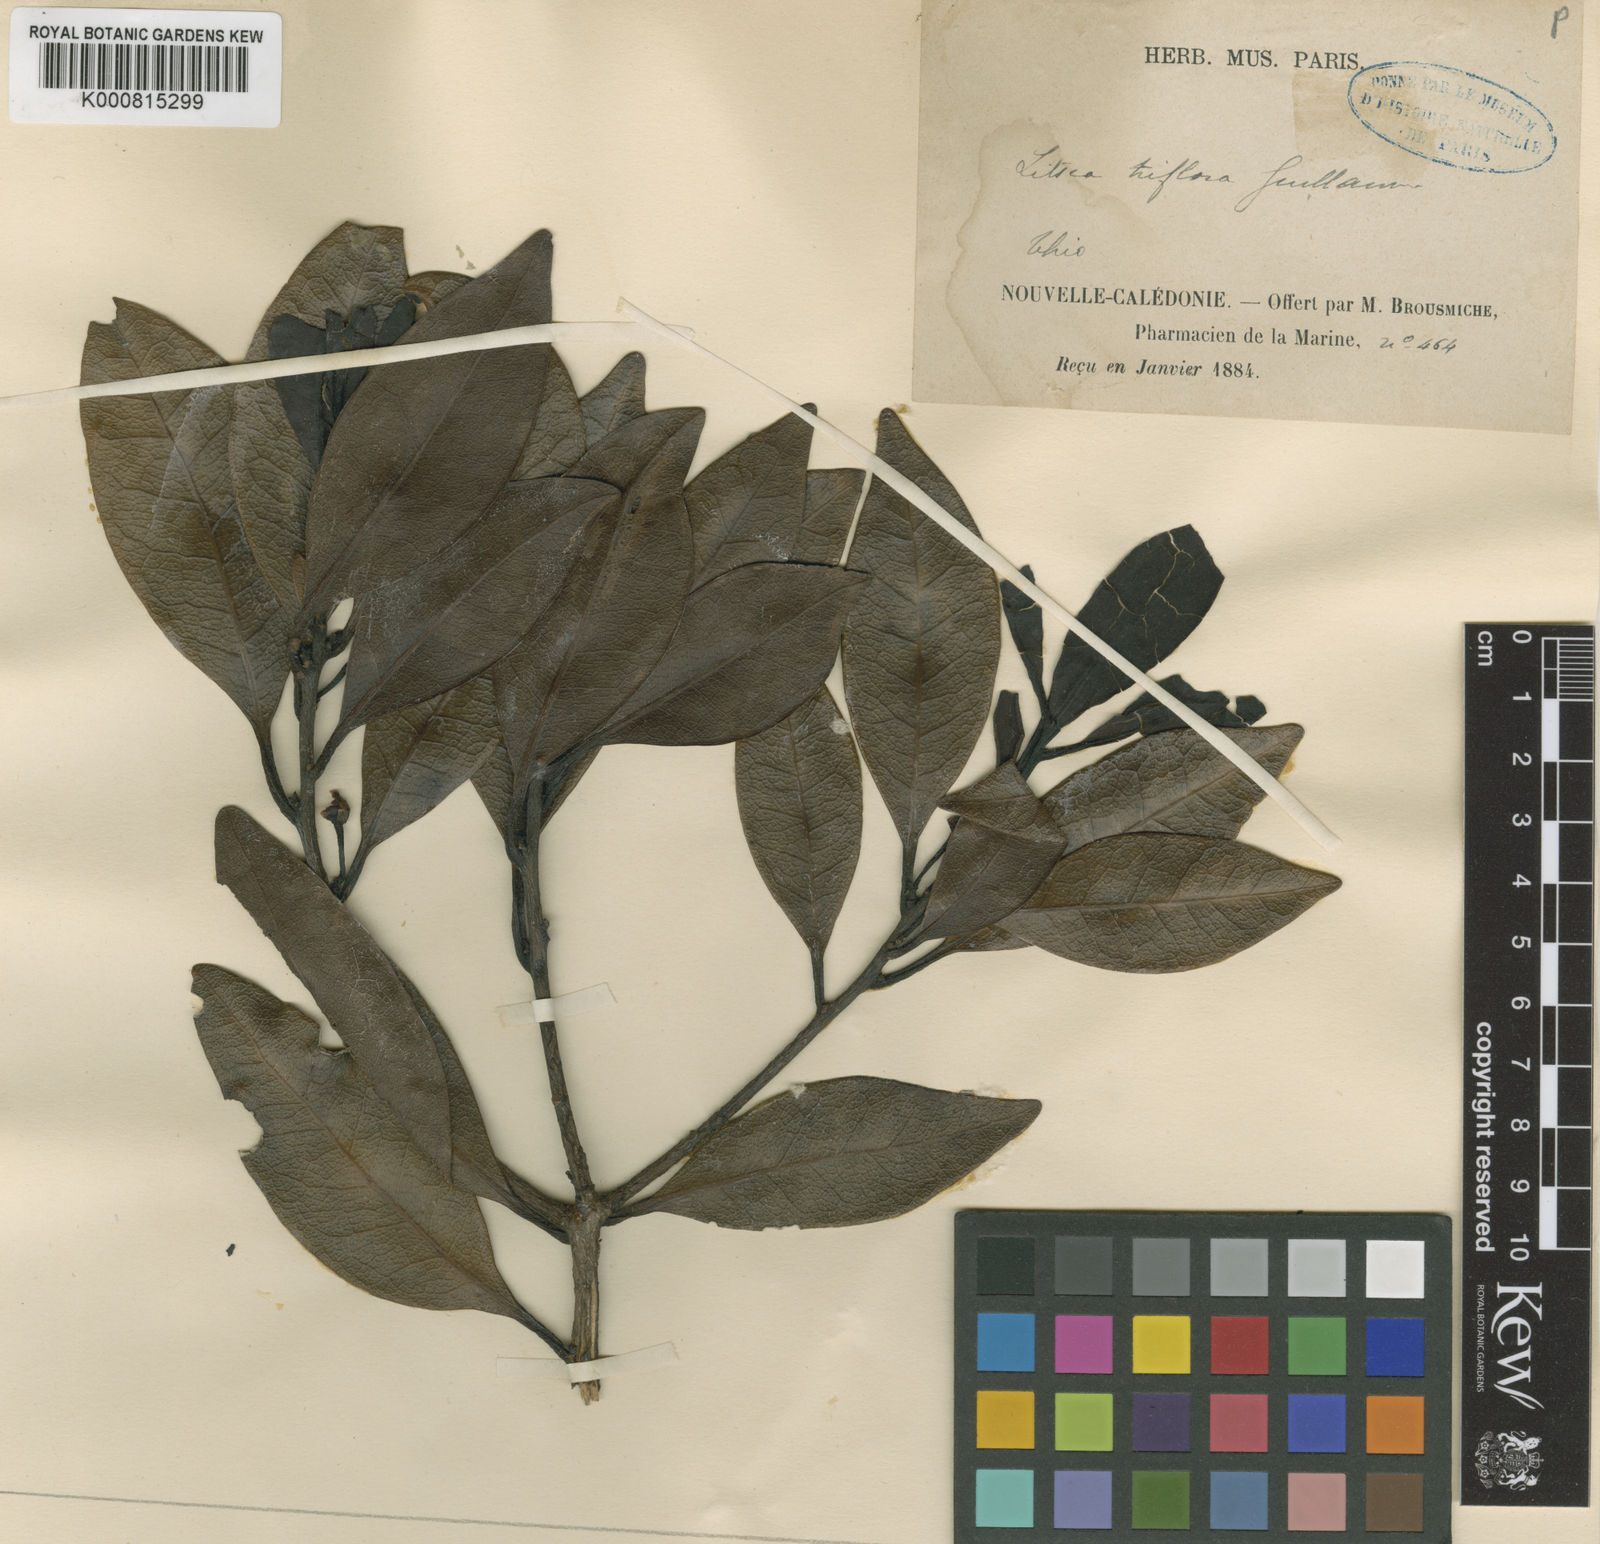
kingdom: Plantae
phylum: Tracheophyta
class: Magnoliopsida
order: Laurales
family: Lauraceae
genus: Litsea
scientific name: Litsea triflora
